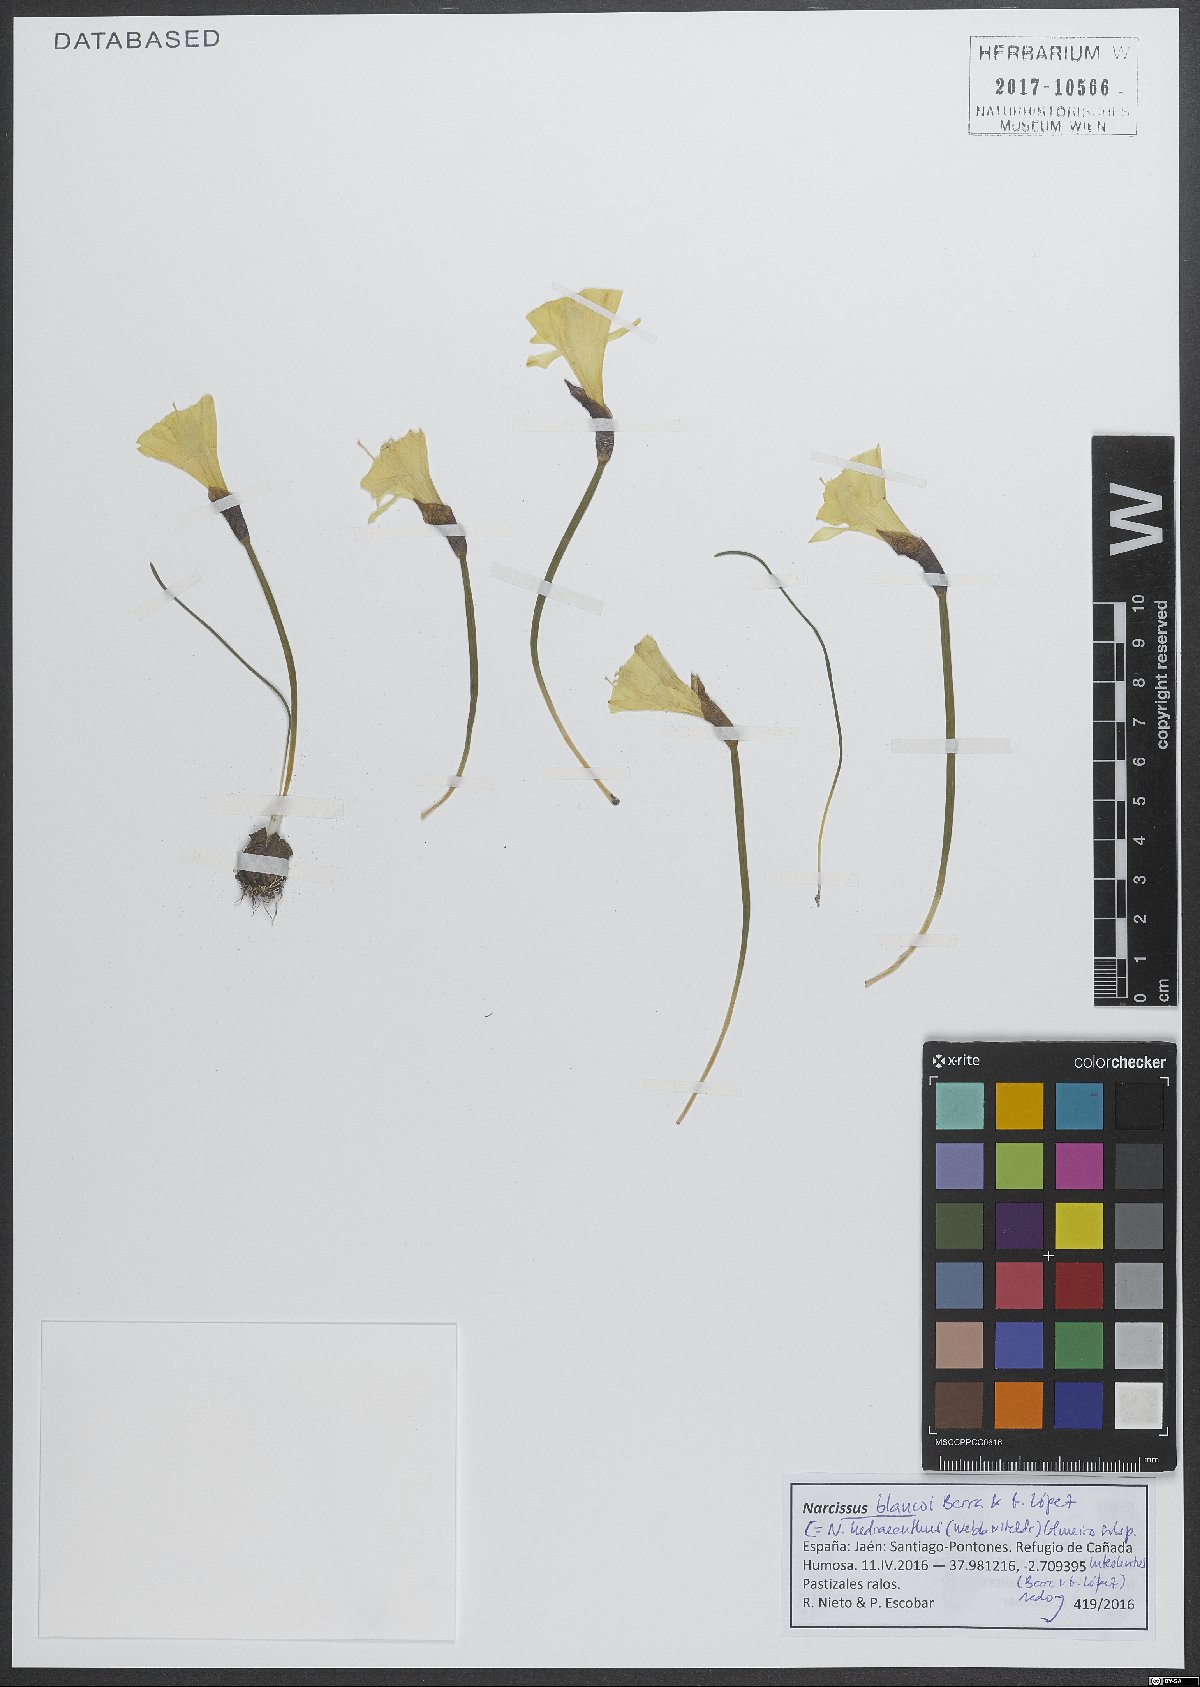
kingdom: Plantae
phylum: Tracheophyta
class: Liliopsida
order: Asparagales
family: Amaryllidaceae
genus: Narcissus
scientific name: Narcissus hedraeanthus
